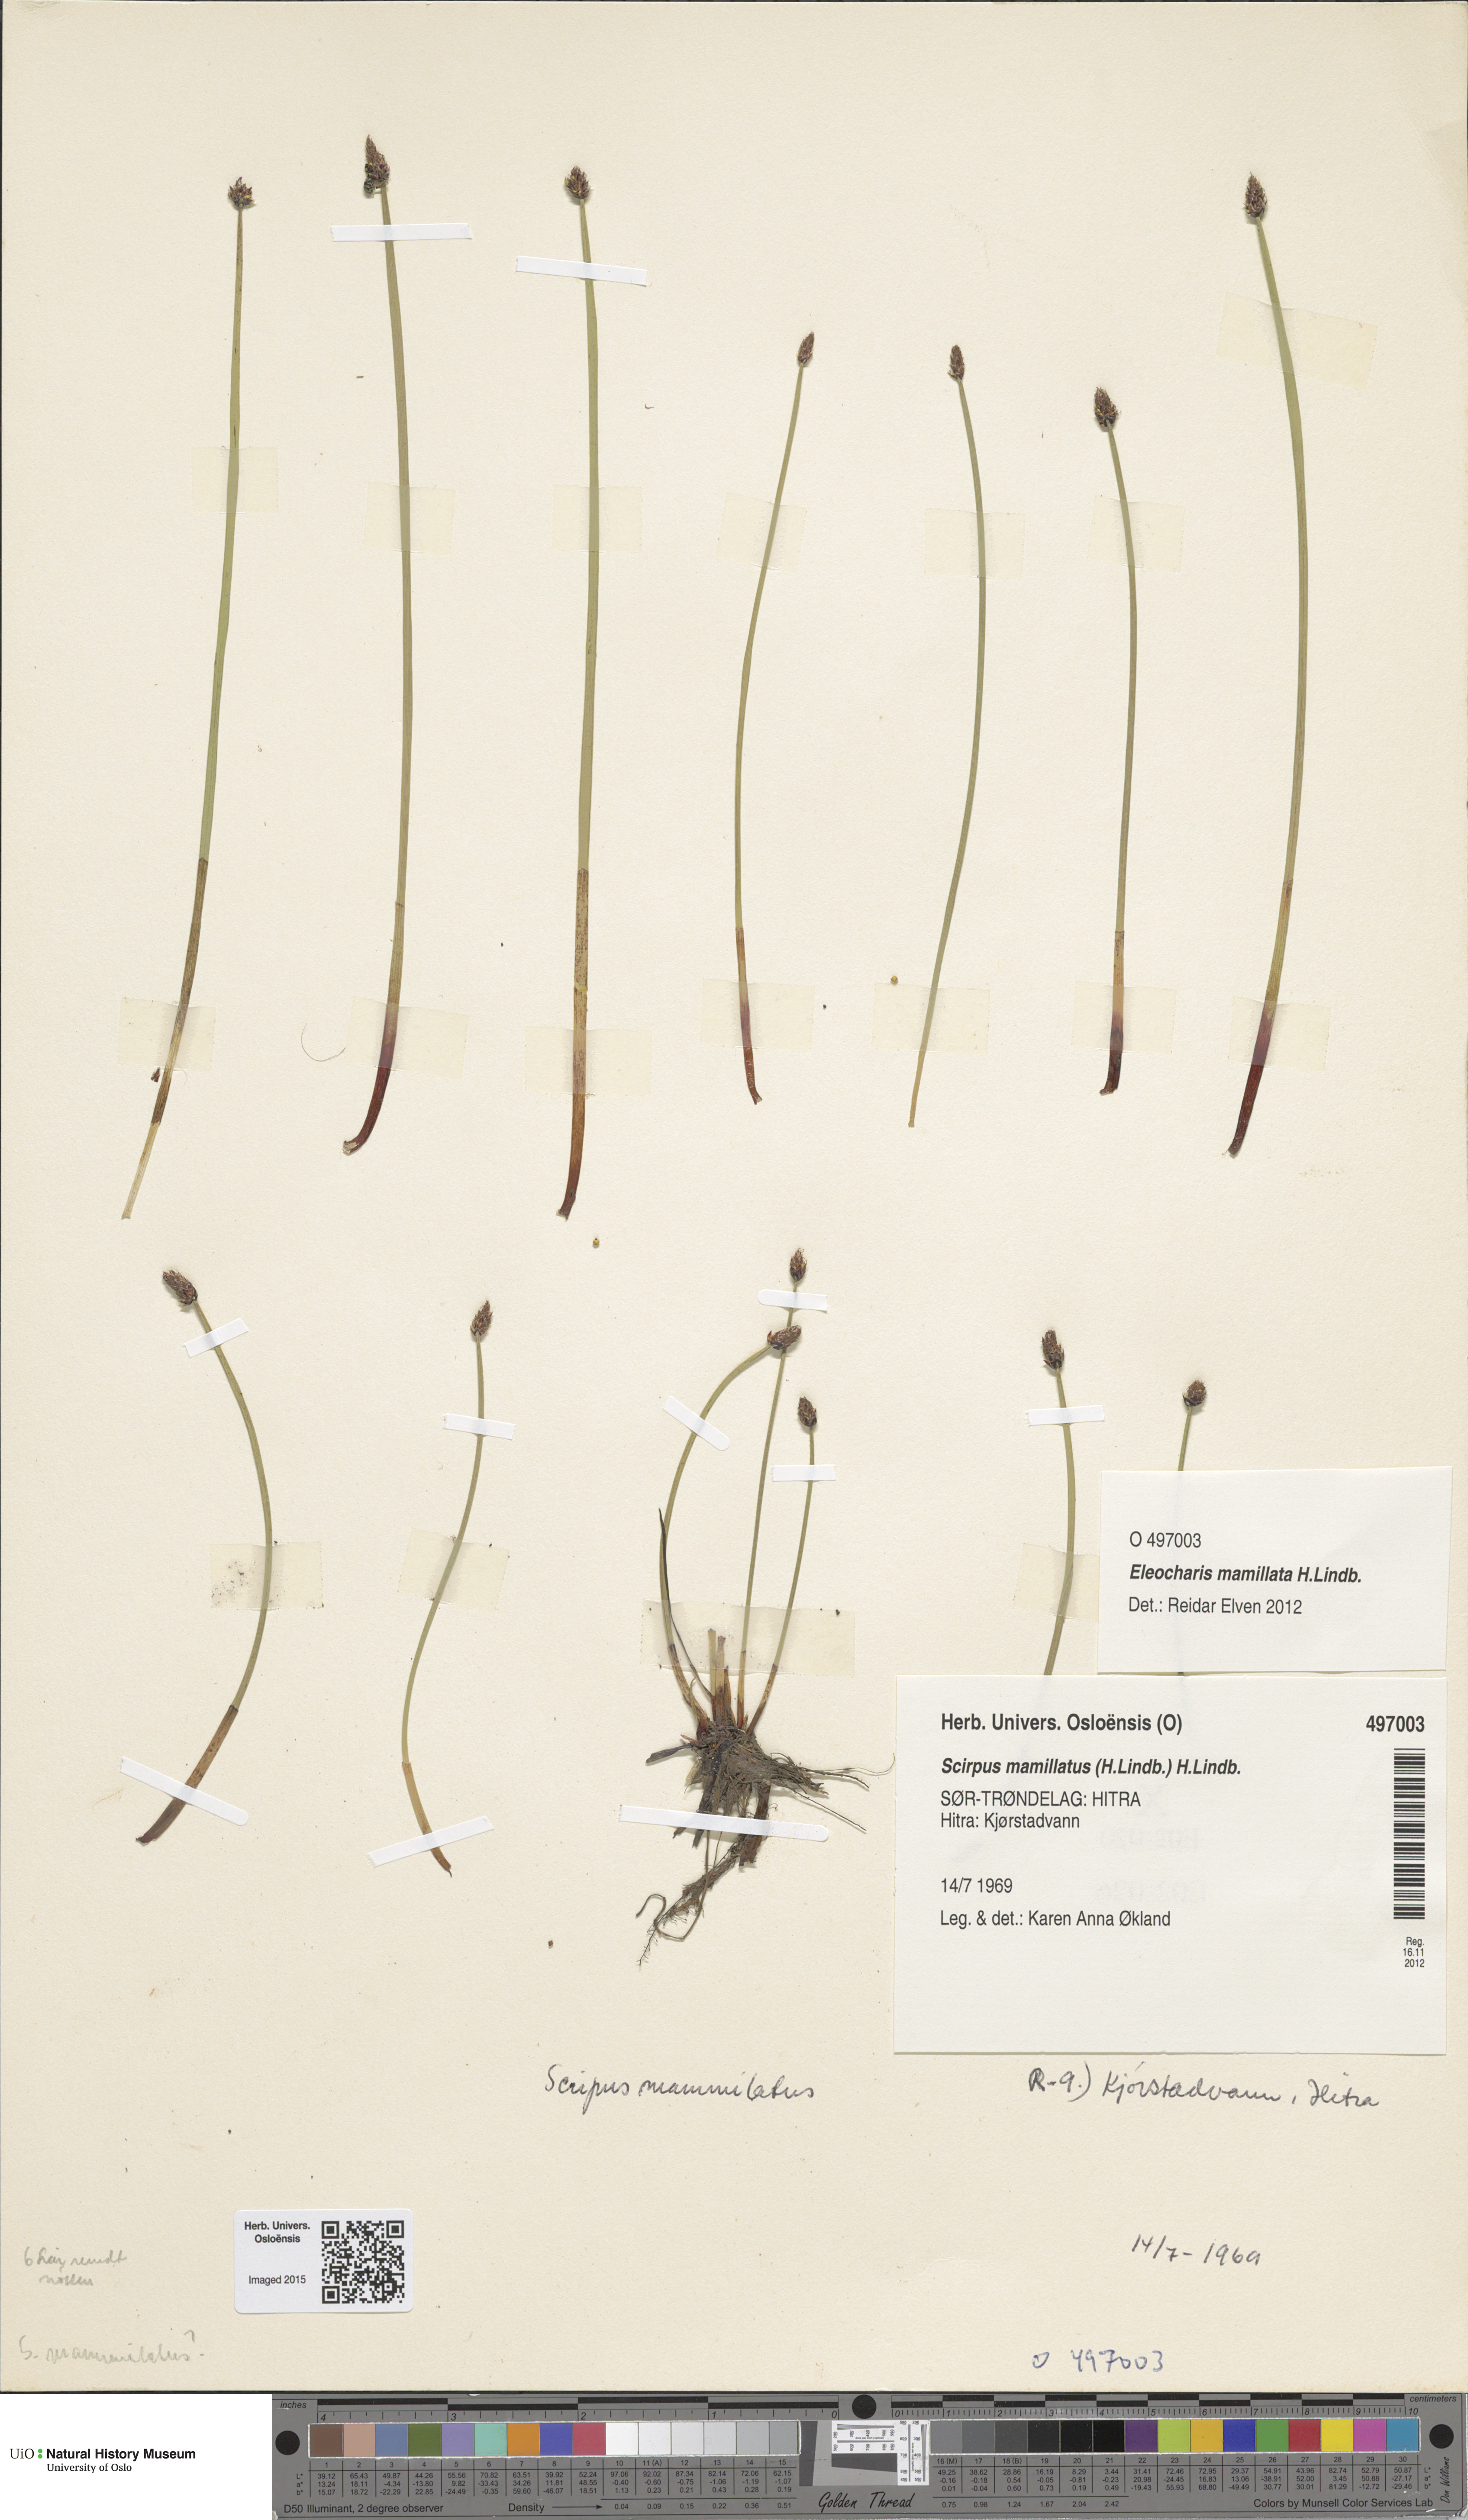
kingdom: Plantae
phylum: Tracheophyta
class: Liliopsida
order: Poales
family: Cyperaceae
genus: Eleocharis
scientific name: Eleocharis mamillata
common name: Northern spike-rush
